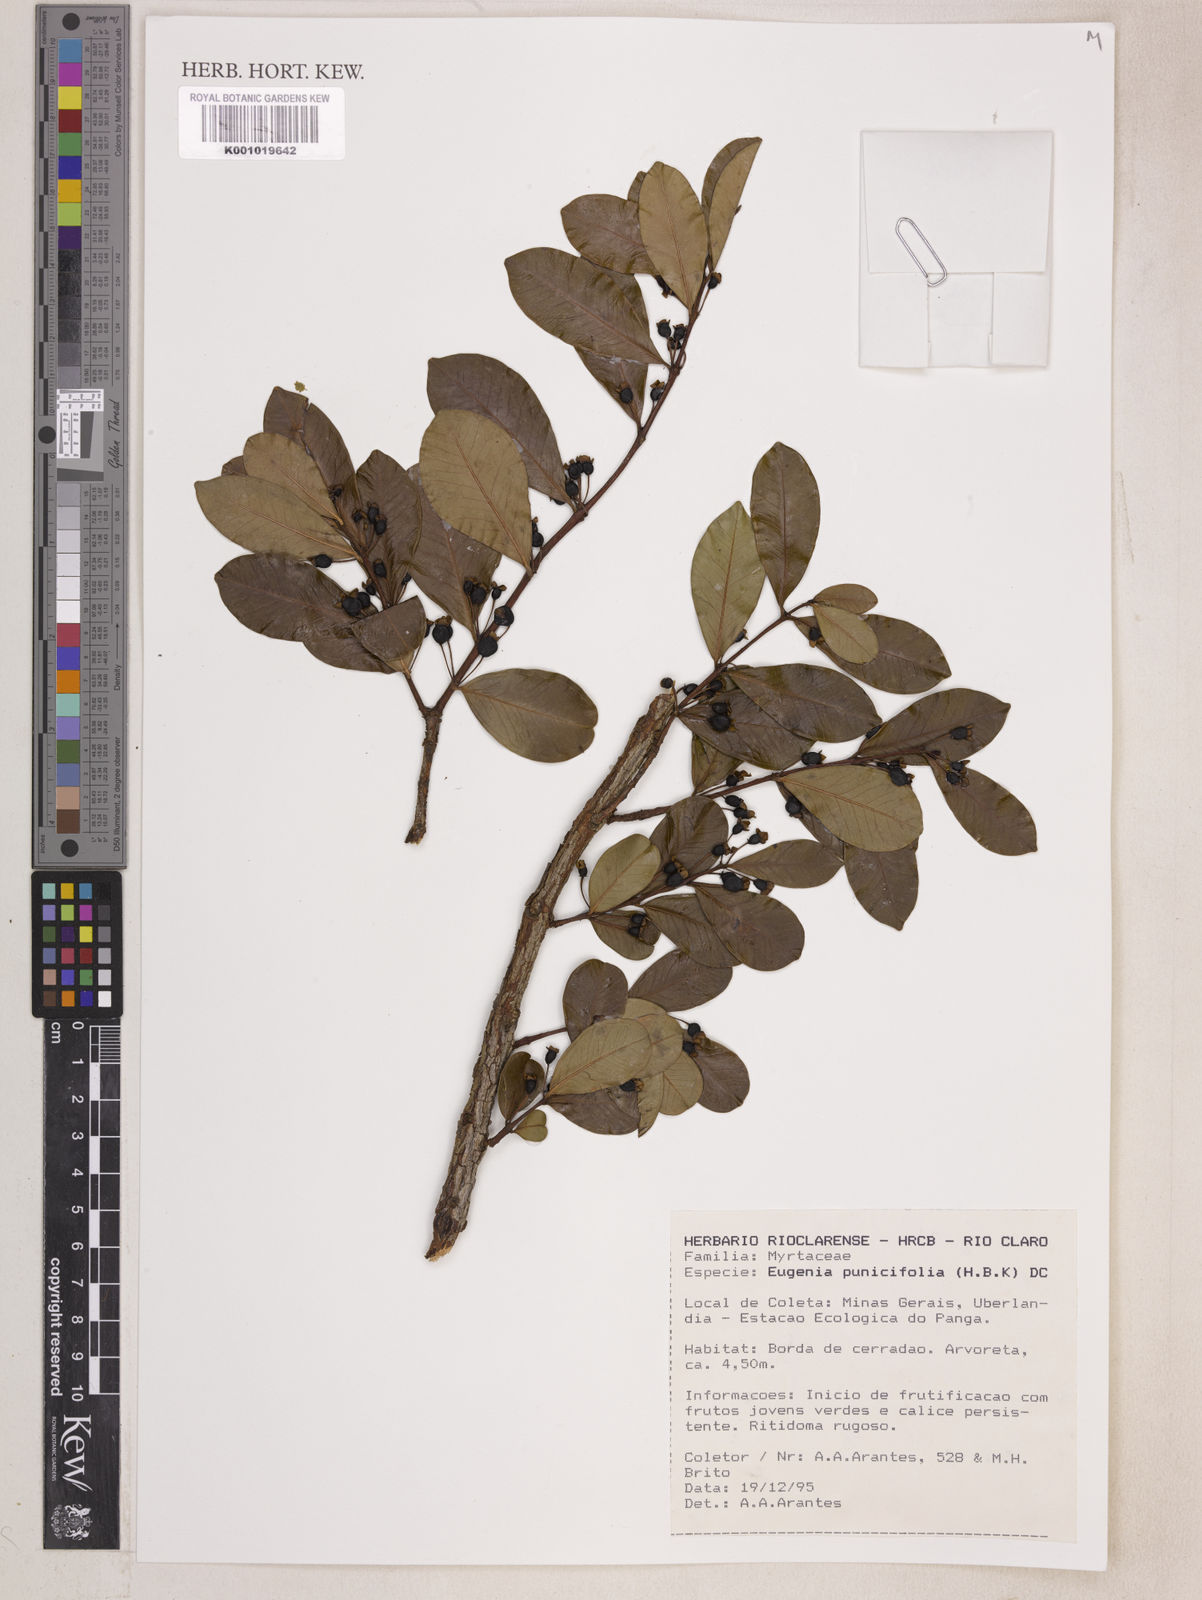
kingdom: Plantae
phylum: Tracheophyta
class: Magnoliopsida
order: Myrtales
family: Myrtaceae
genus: Eugenia
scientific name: Eugenia punicifolia
